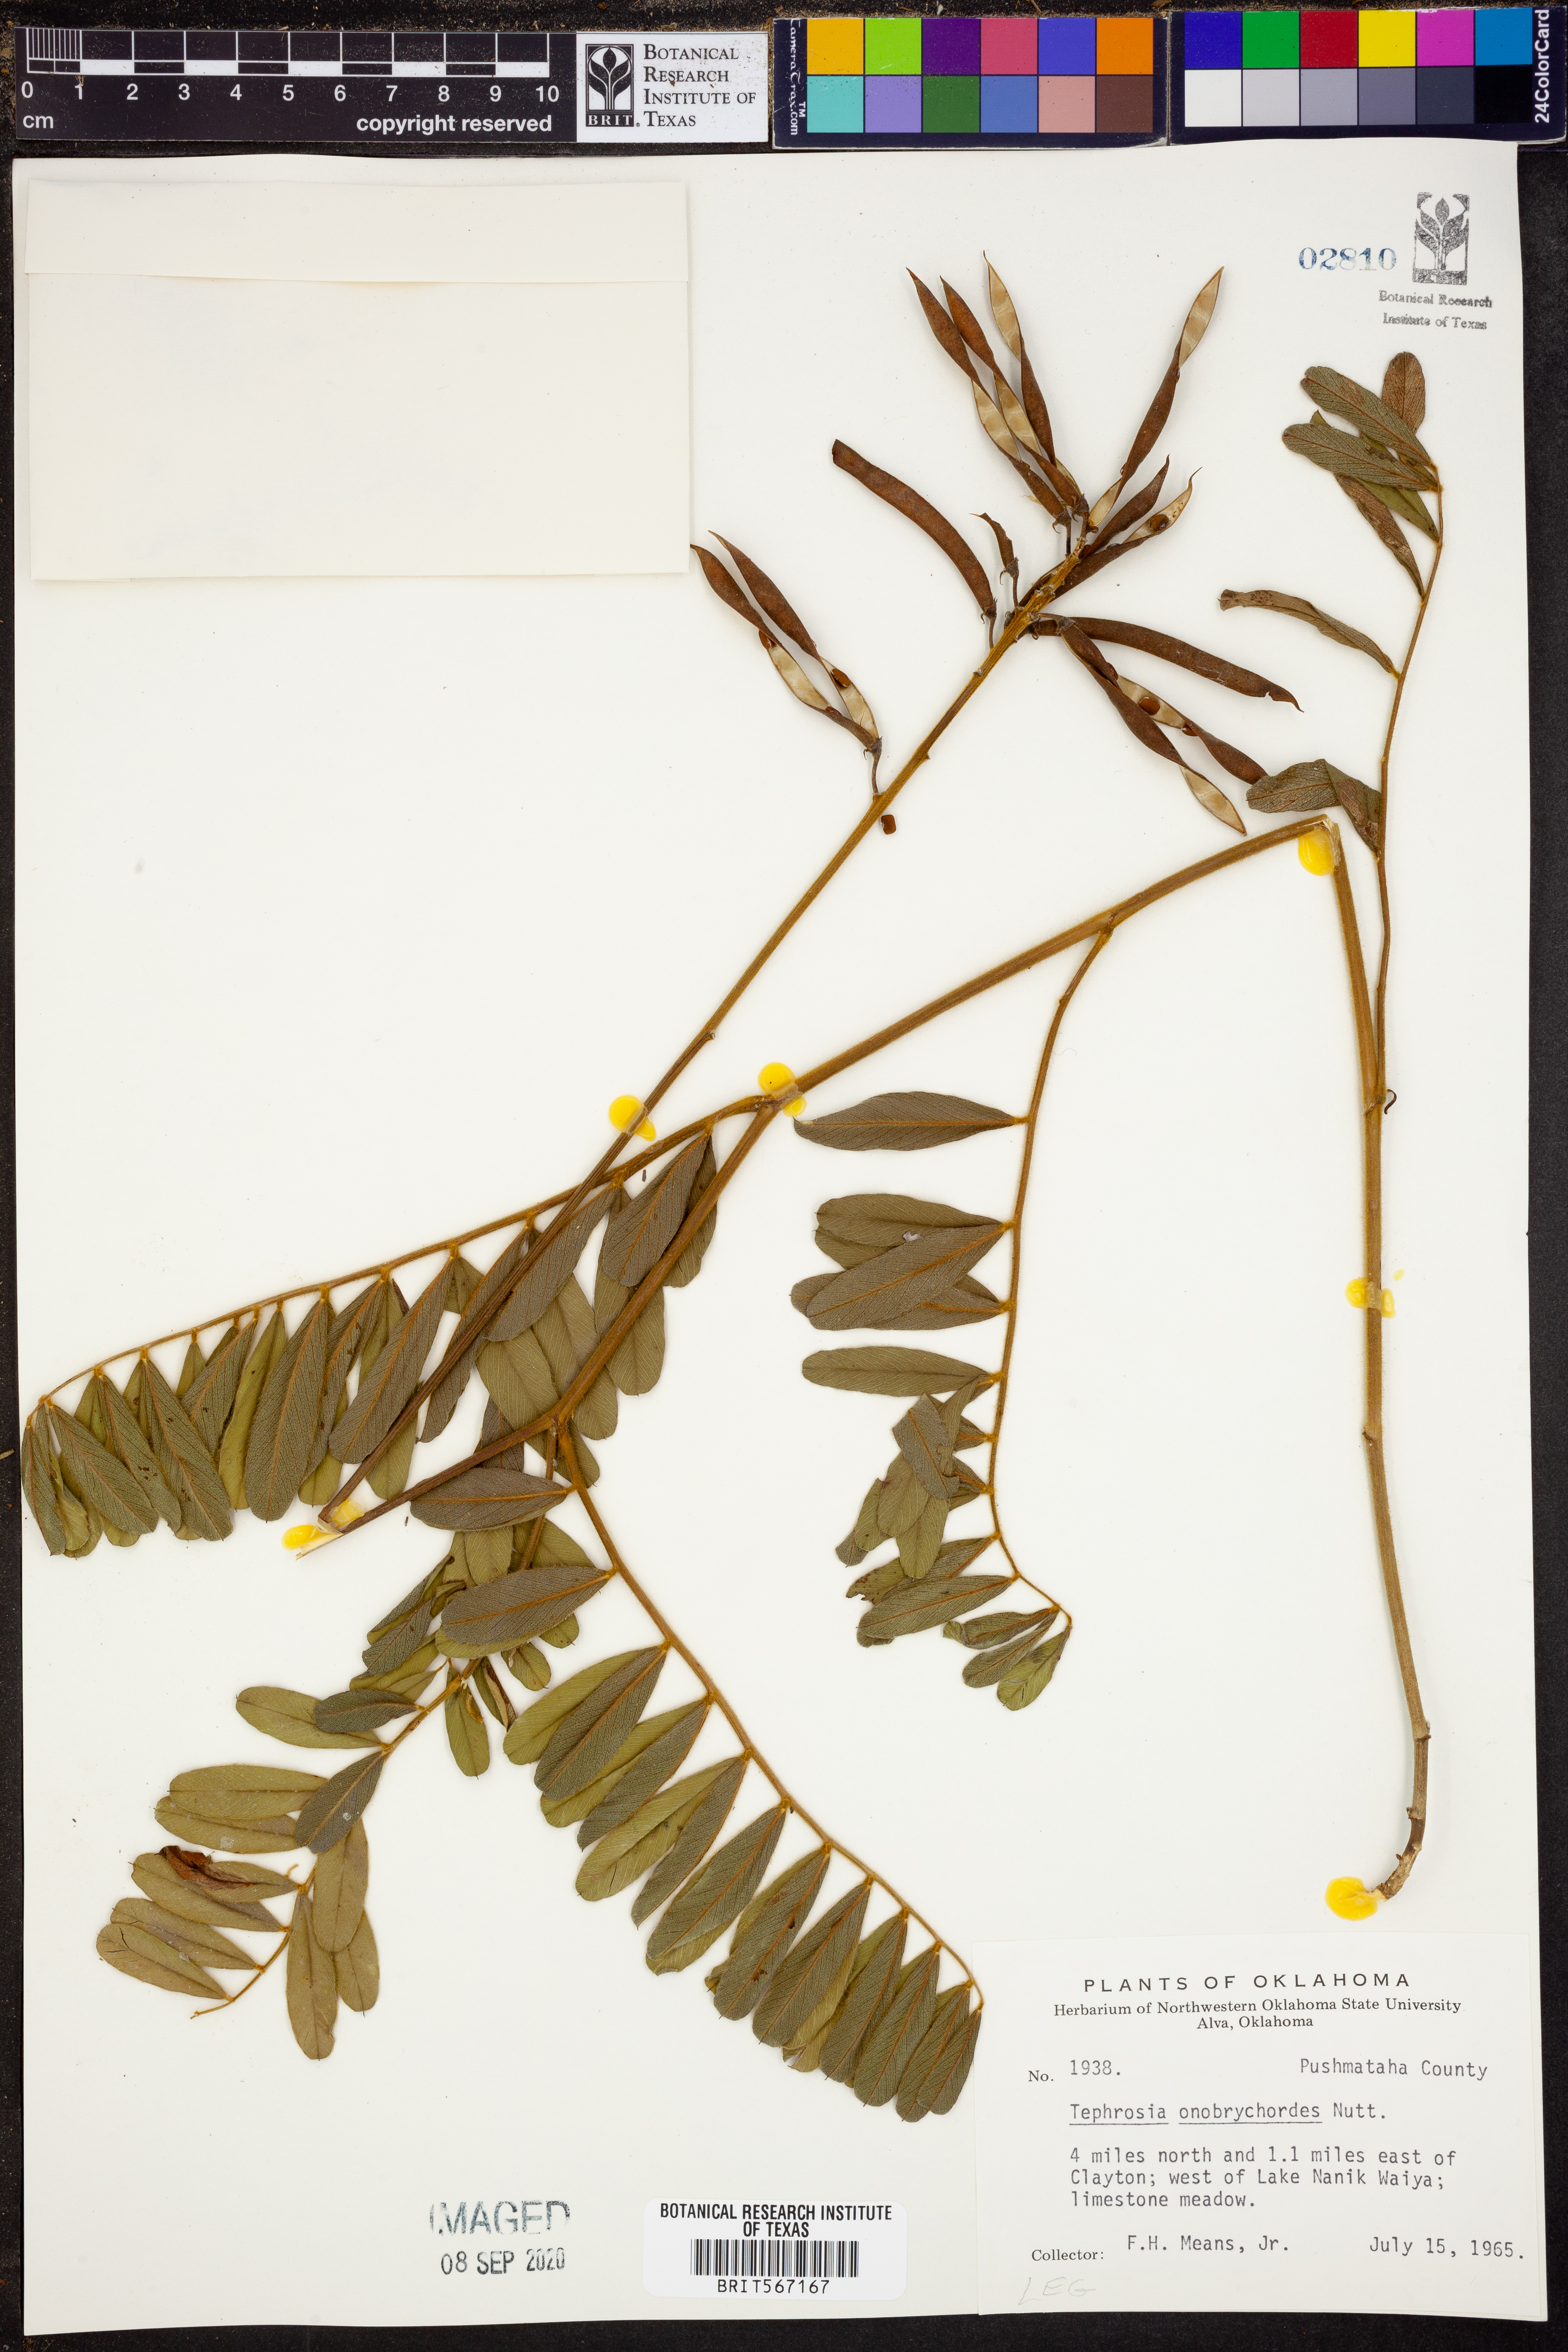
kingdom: Plantae
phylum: Tracheophyta
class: Magnoliopsida
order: Fabales
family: Fabaceae
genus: Tephrosia
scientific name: Tephrosia onobrychoides
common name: Multi-bloom hoary-pea
